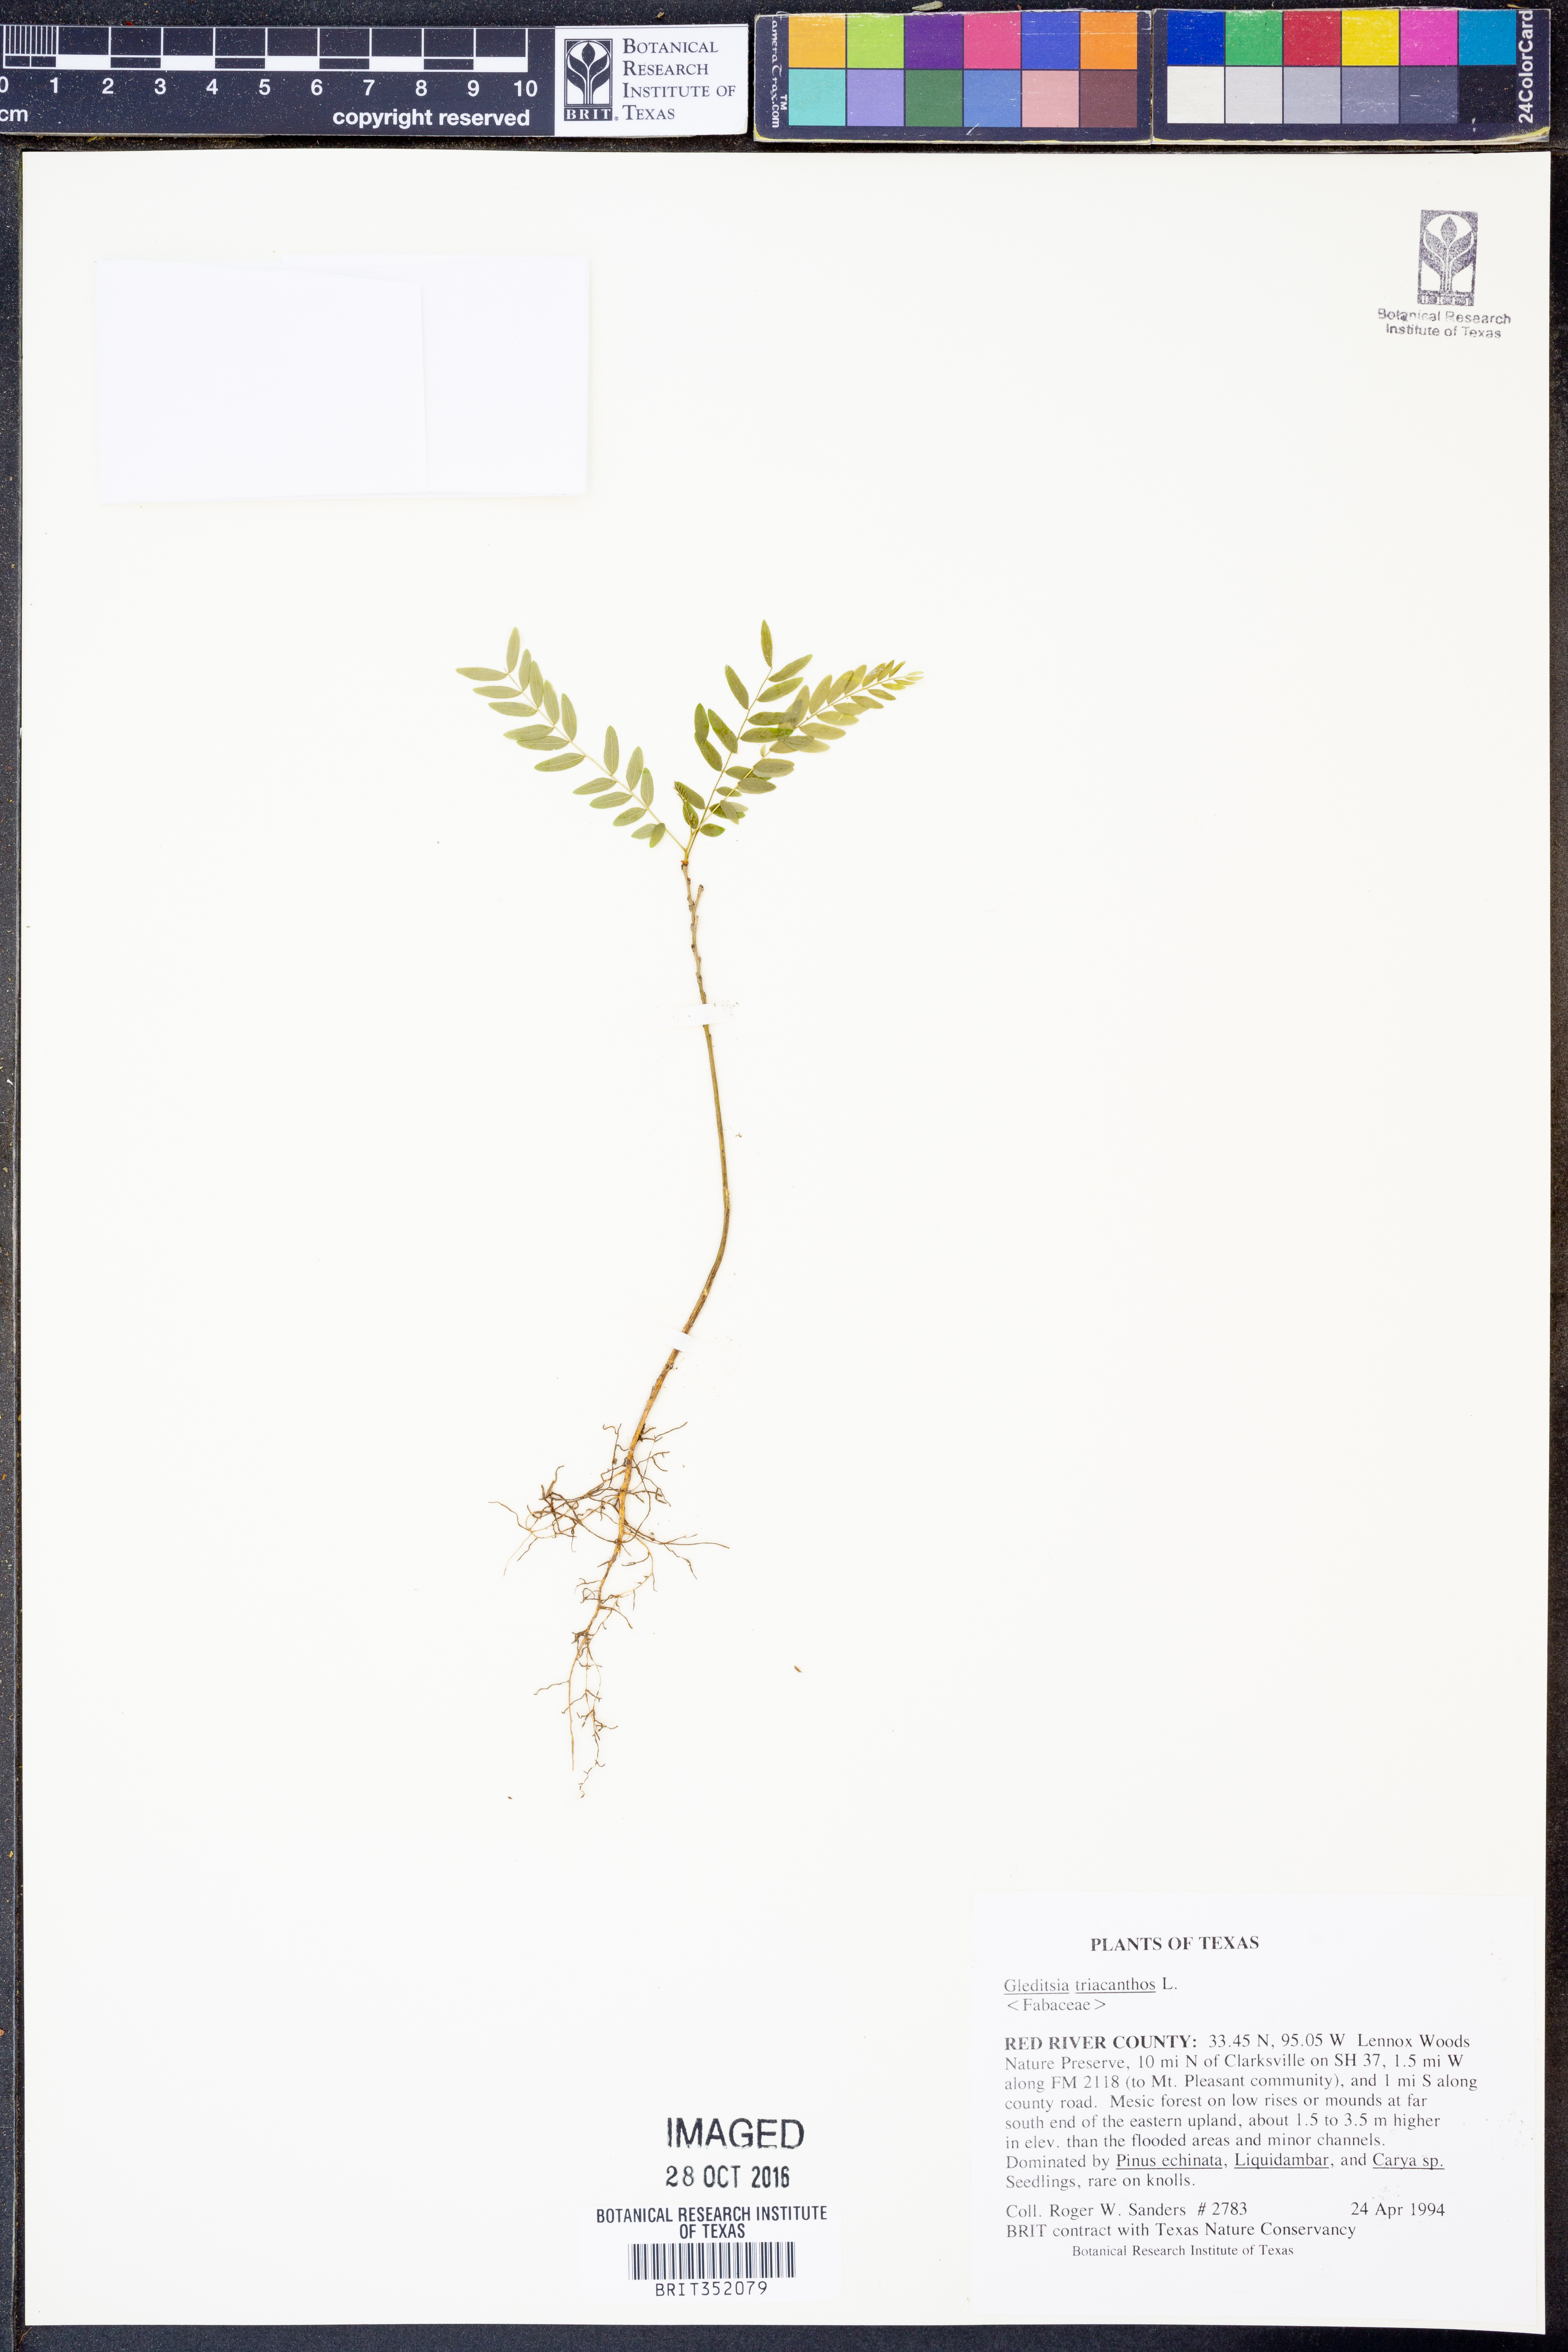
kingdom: Plantae
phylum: Tracheophyta
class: Magnoliopsida
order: Fabales
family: Fabaceae
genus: Gleditsia
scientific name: Gleditsia triacanthos
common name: Common honeylocust
